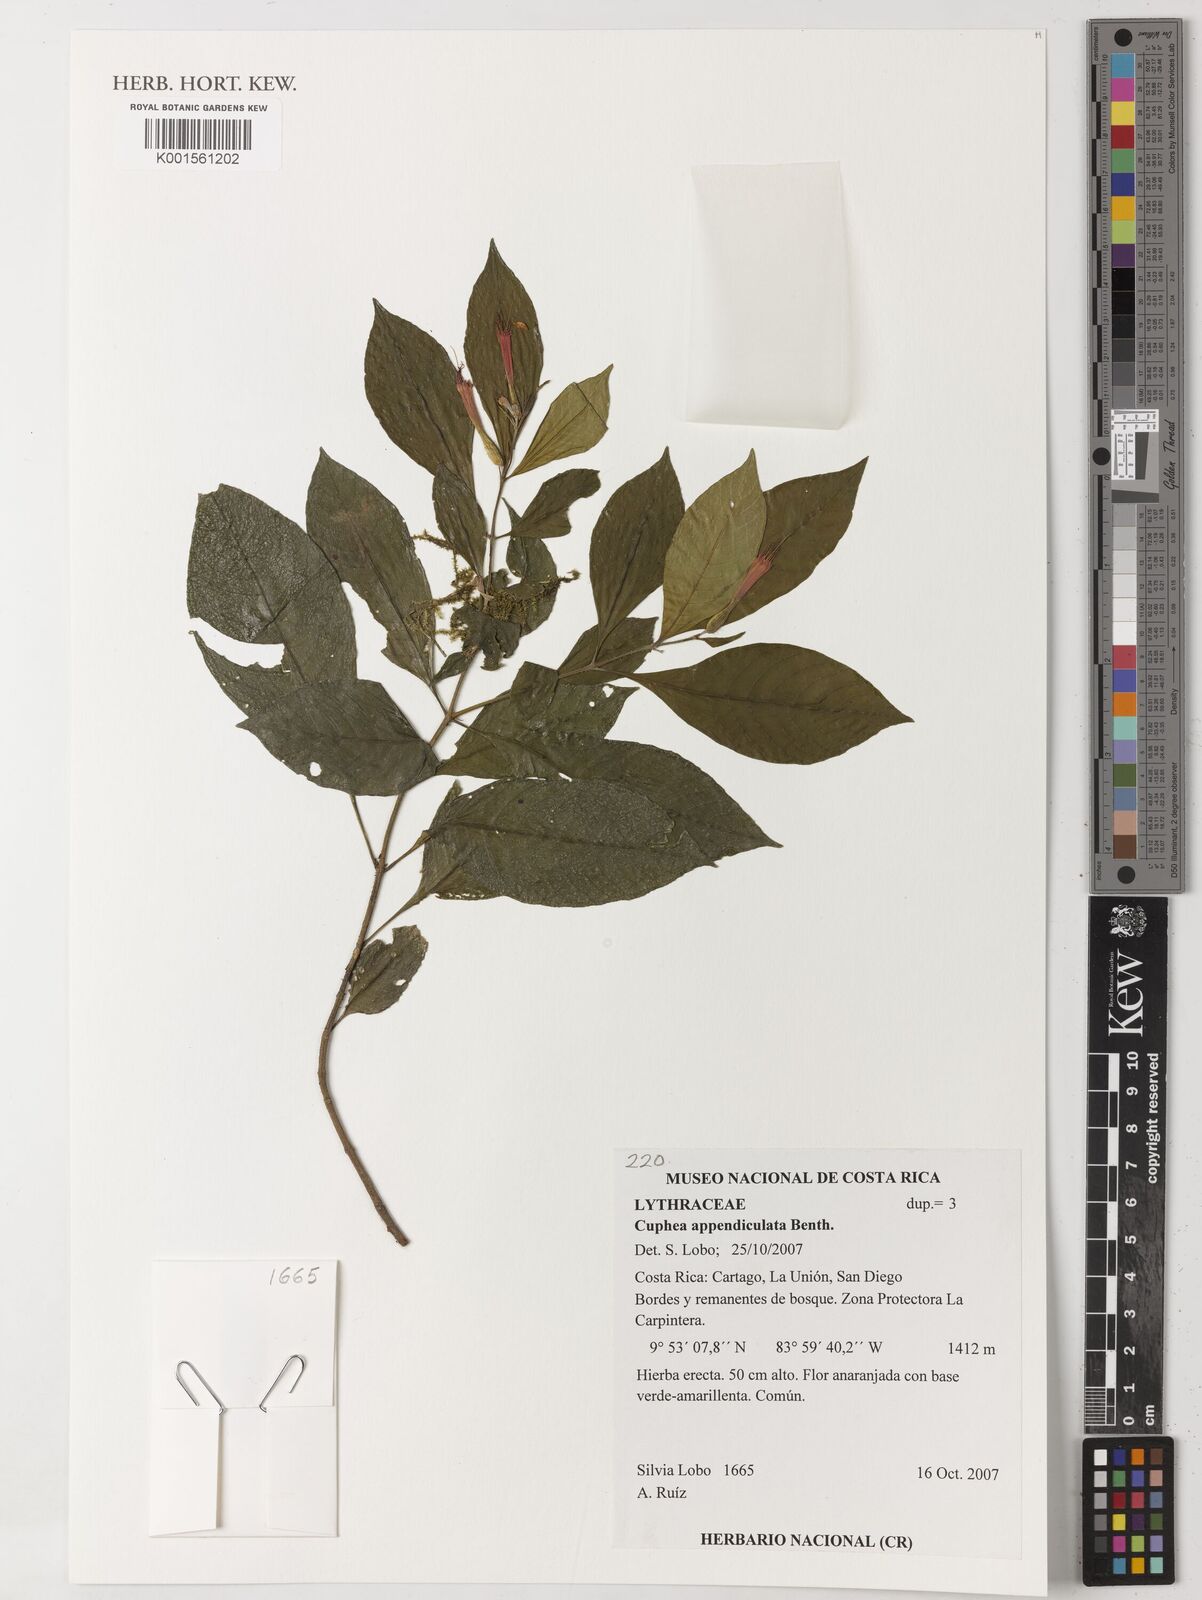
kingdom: Plantae
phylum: Tracheophyta
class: Magnoliopsida
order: Myrtales
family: Lythraceae
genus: Cuphea
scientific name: Cuphea appendiculata
